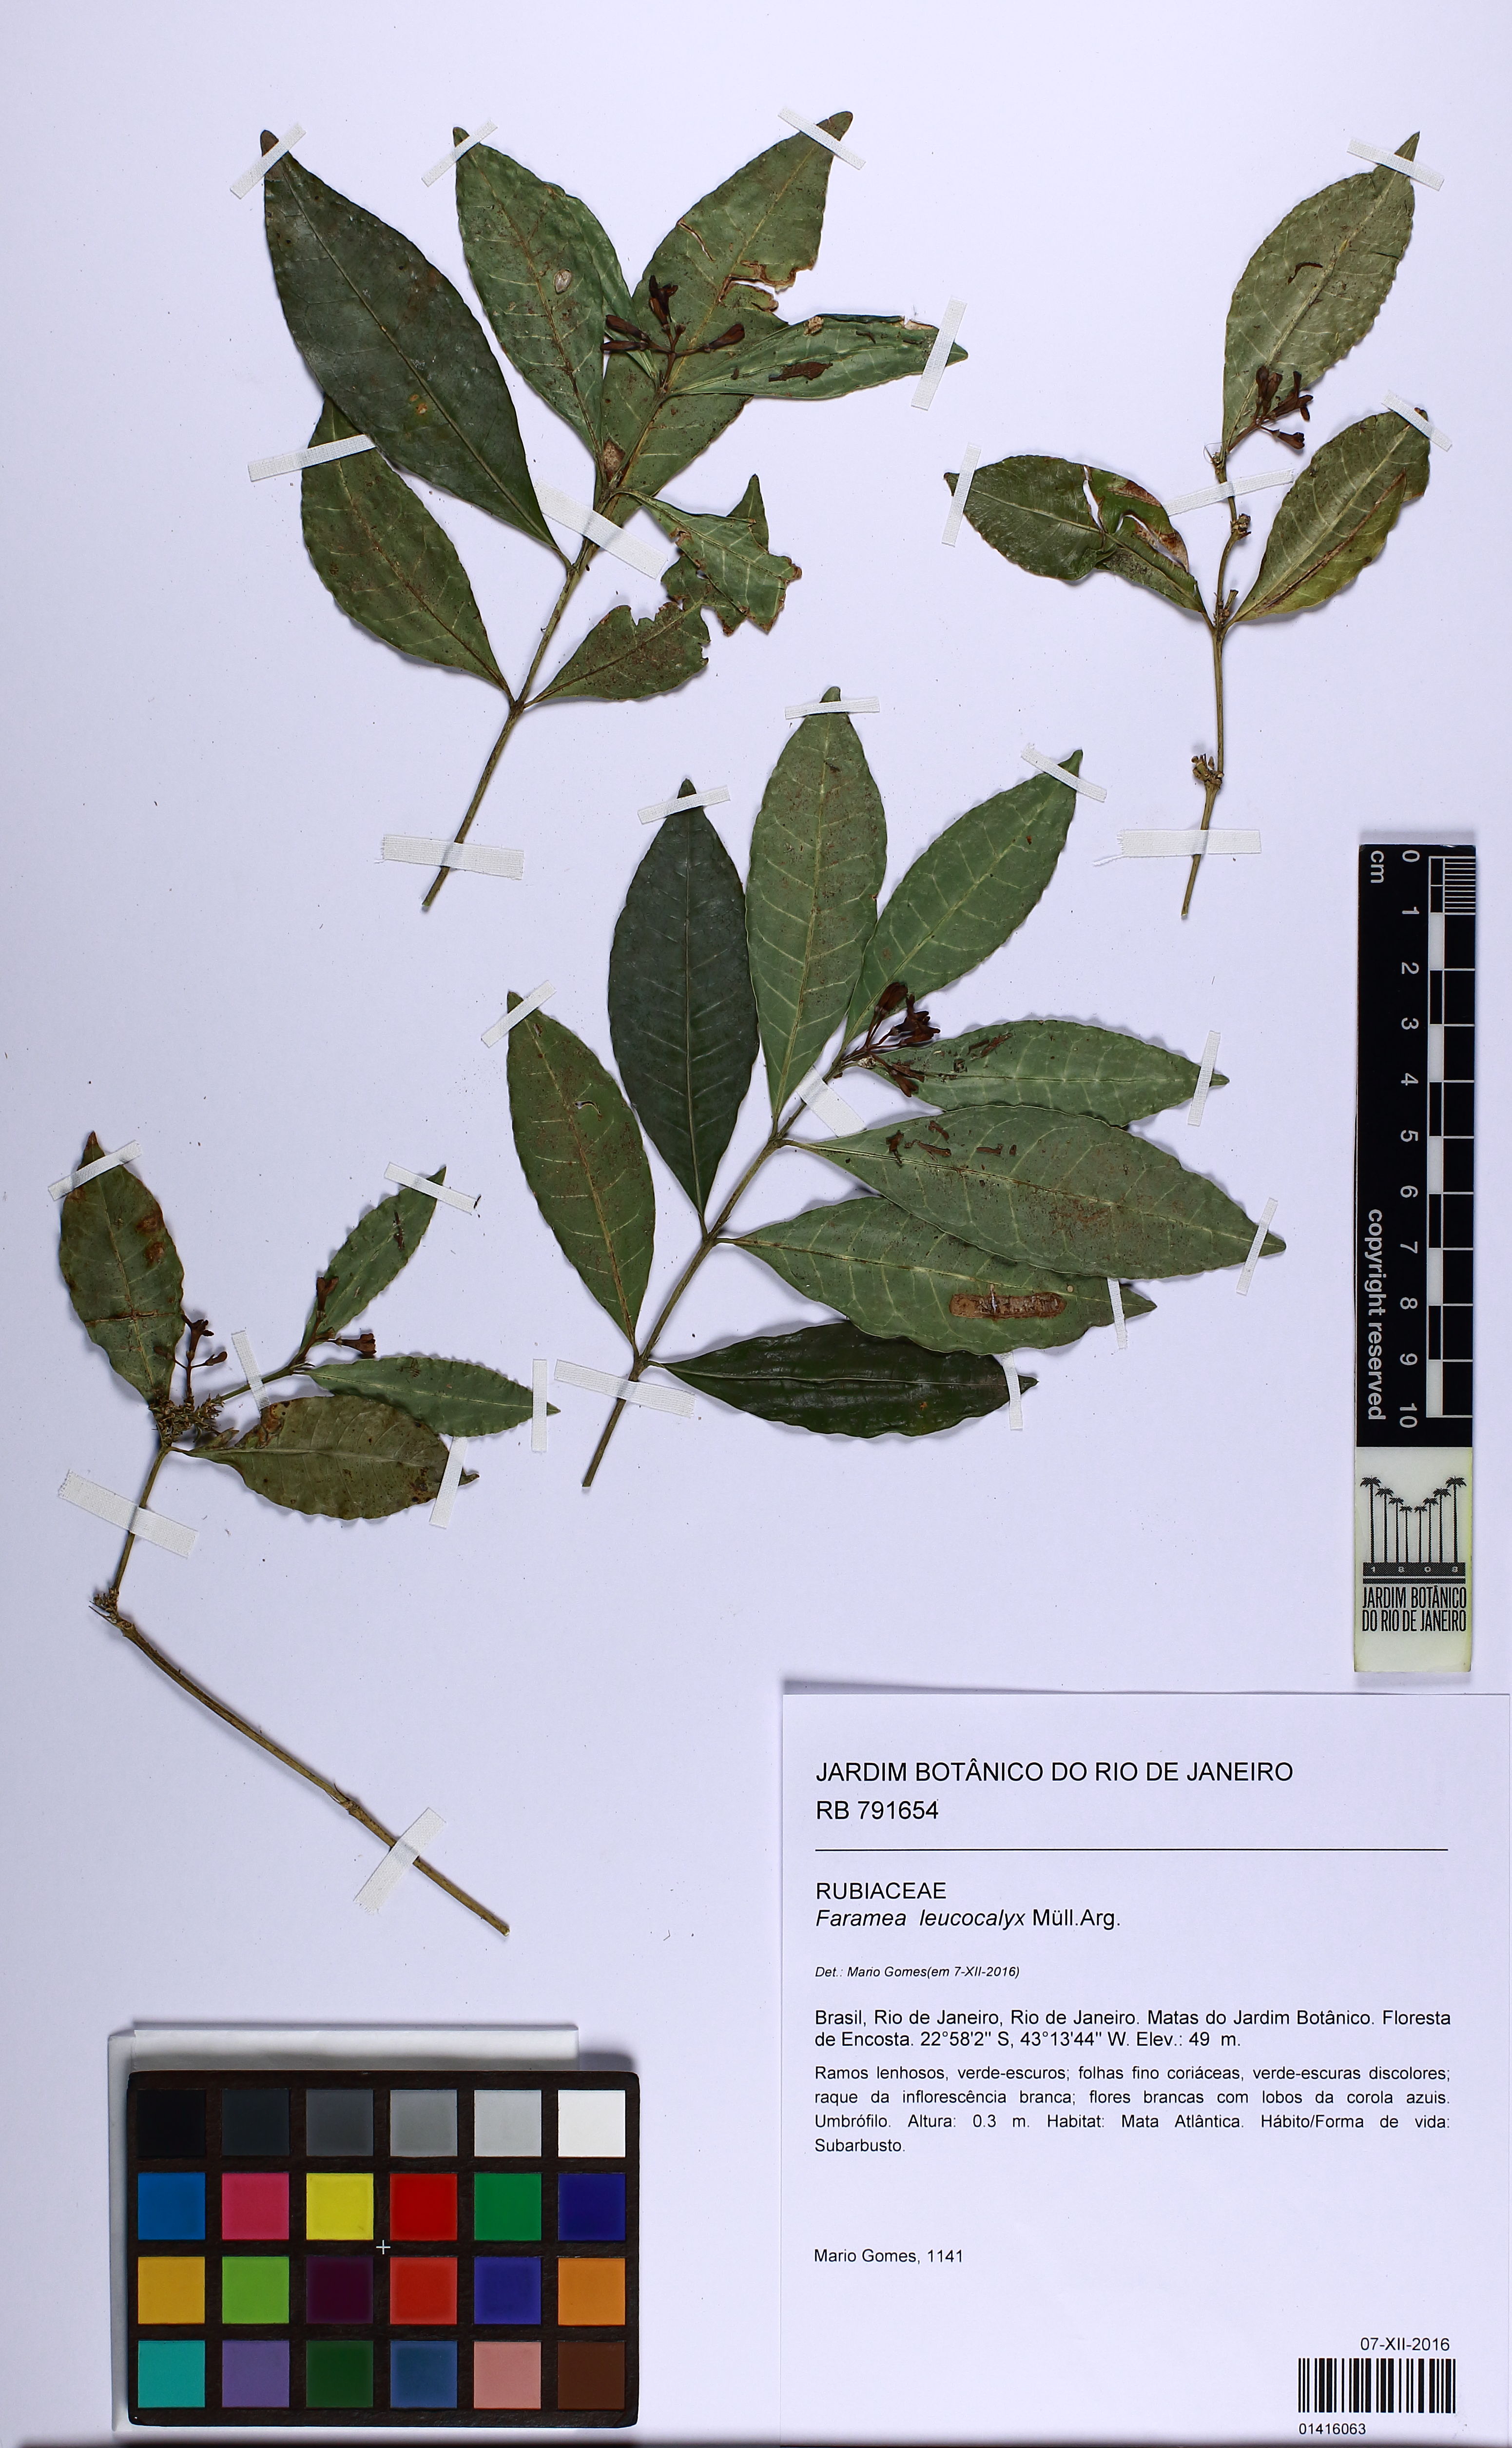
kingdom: Plantae
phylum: Tracheophyta
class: Magnoliopsida
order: Gentianales
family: Rubiaceae
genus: Faramea
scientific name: Faramea leucocalyx
